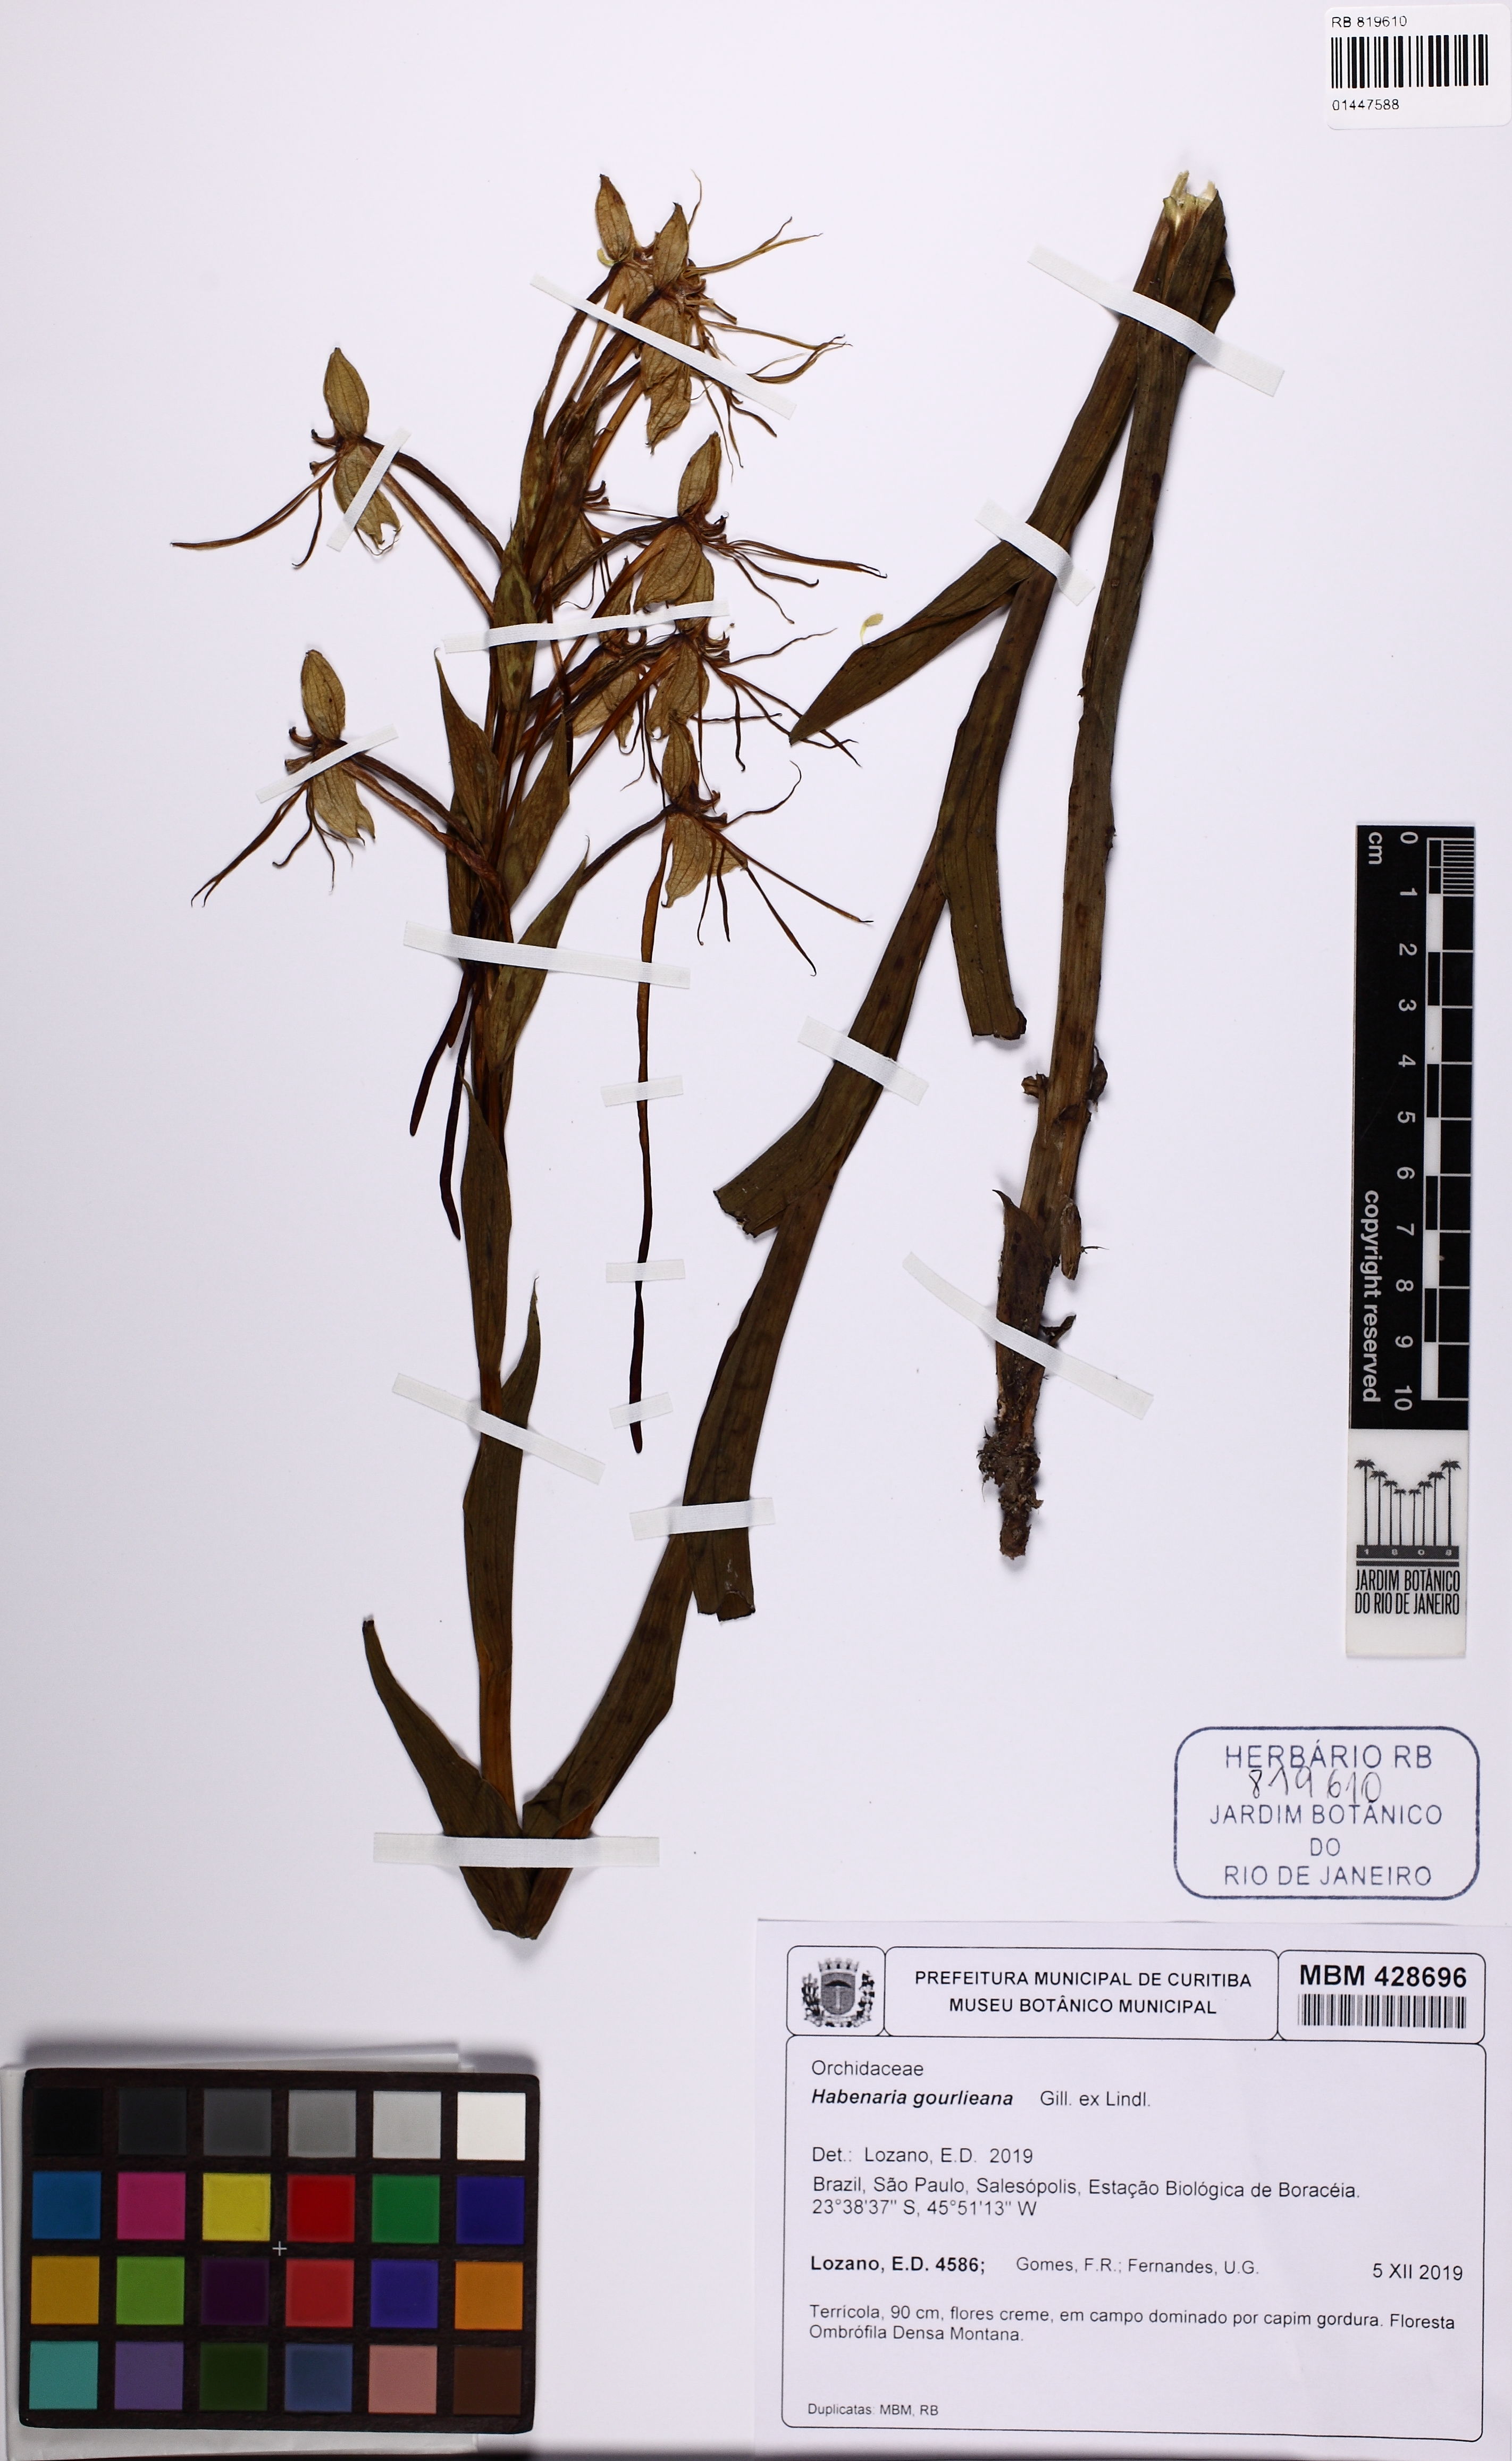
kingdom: Plantae
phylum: Tracheophyta
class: Liliopsida
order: Asparagales
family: Orchidaceae
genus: Habenaria
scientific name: Habenaria gourlieana
